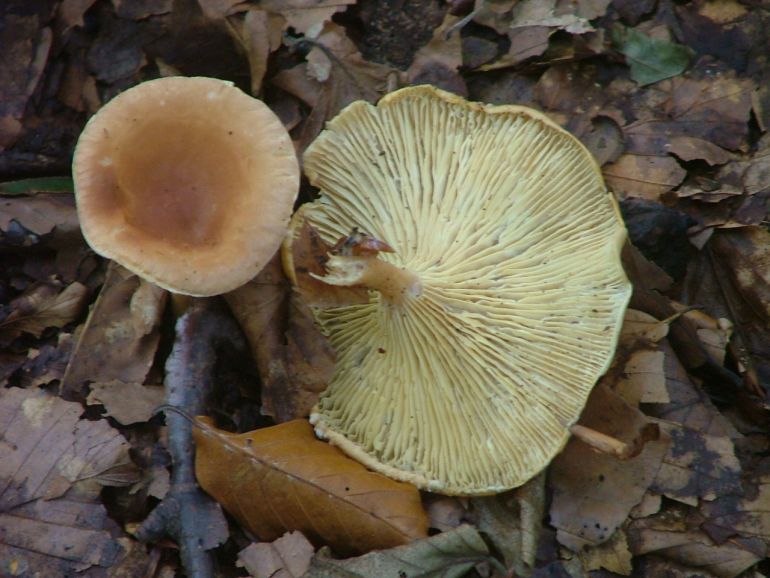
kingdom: Fungi
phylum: Basidiomycota
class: Agaricomycetes
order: Agaricales
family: Tricholomataceae
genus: Infundibulicybe
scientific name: Infundibulicybe gibba
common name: almindelig tragthat
